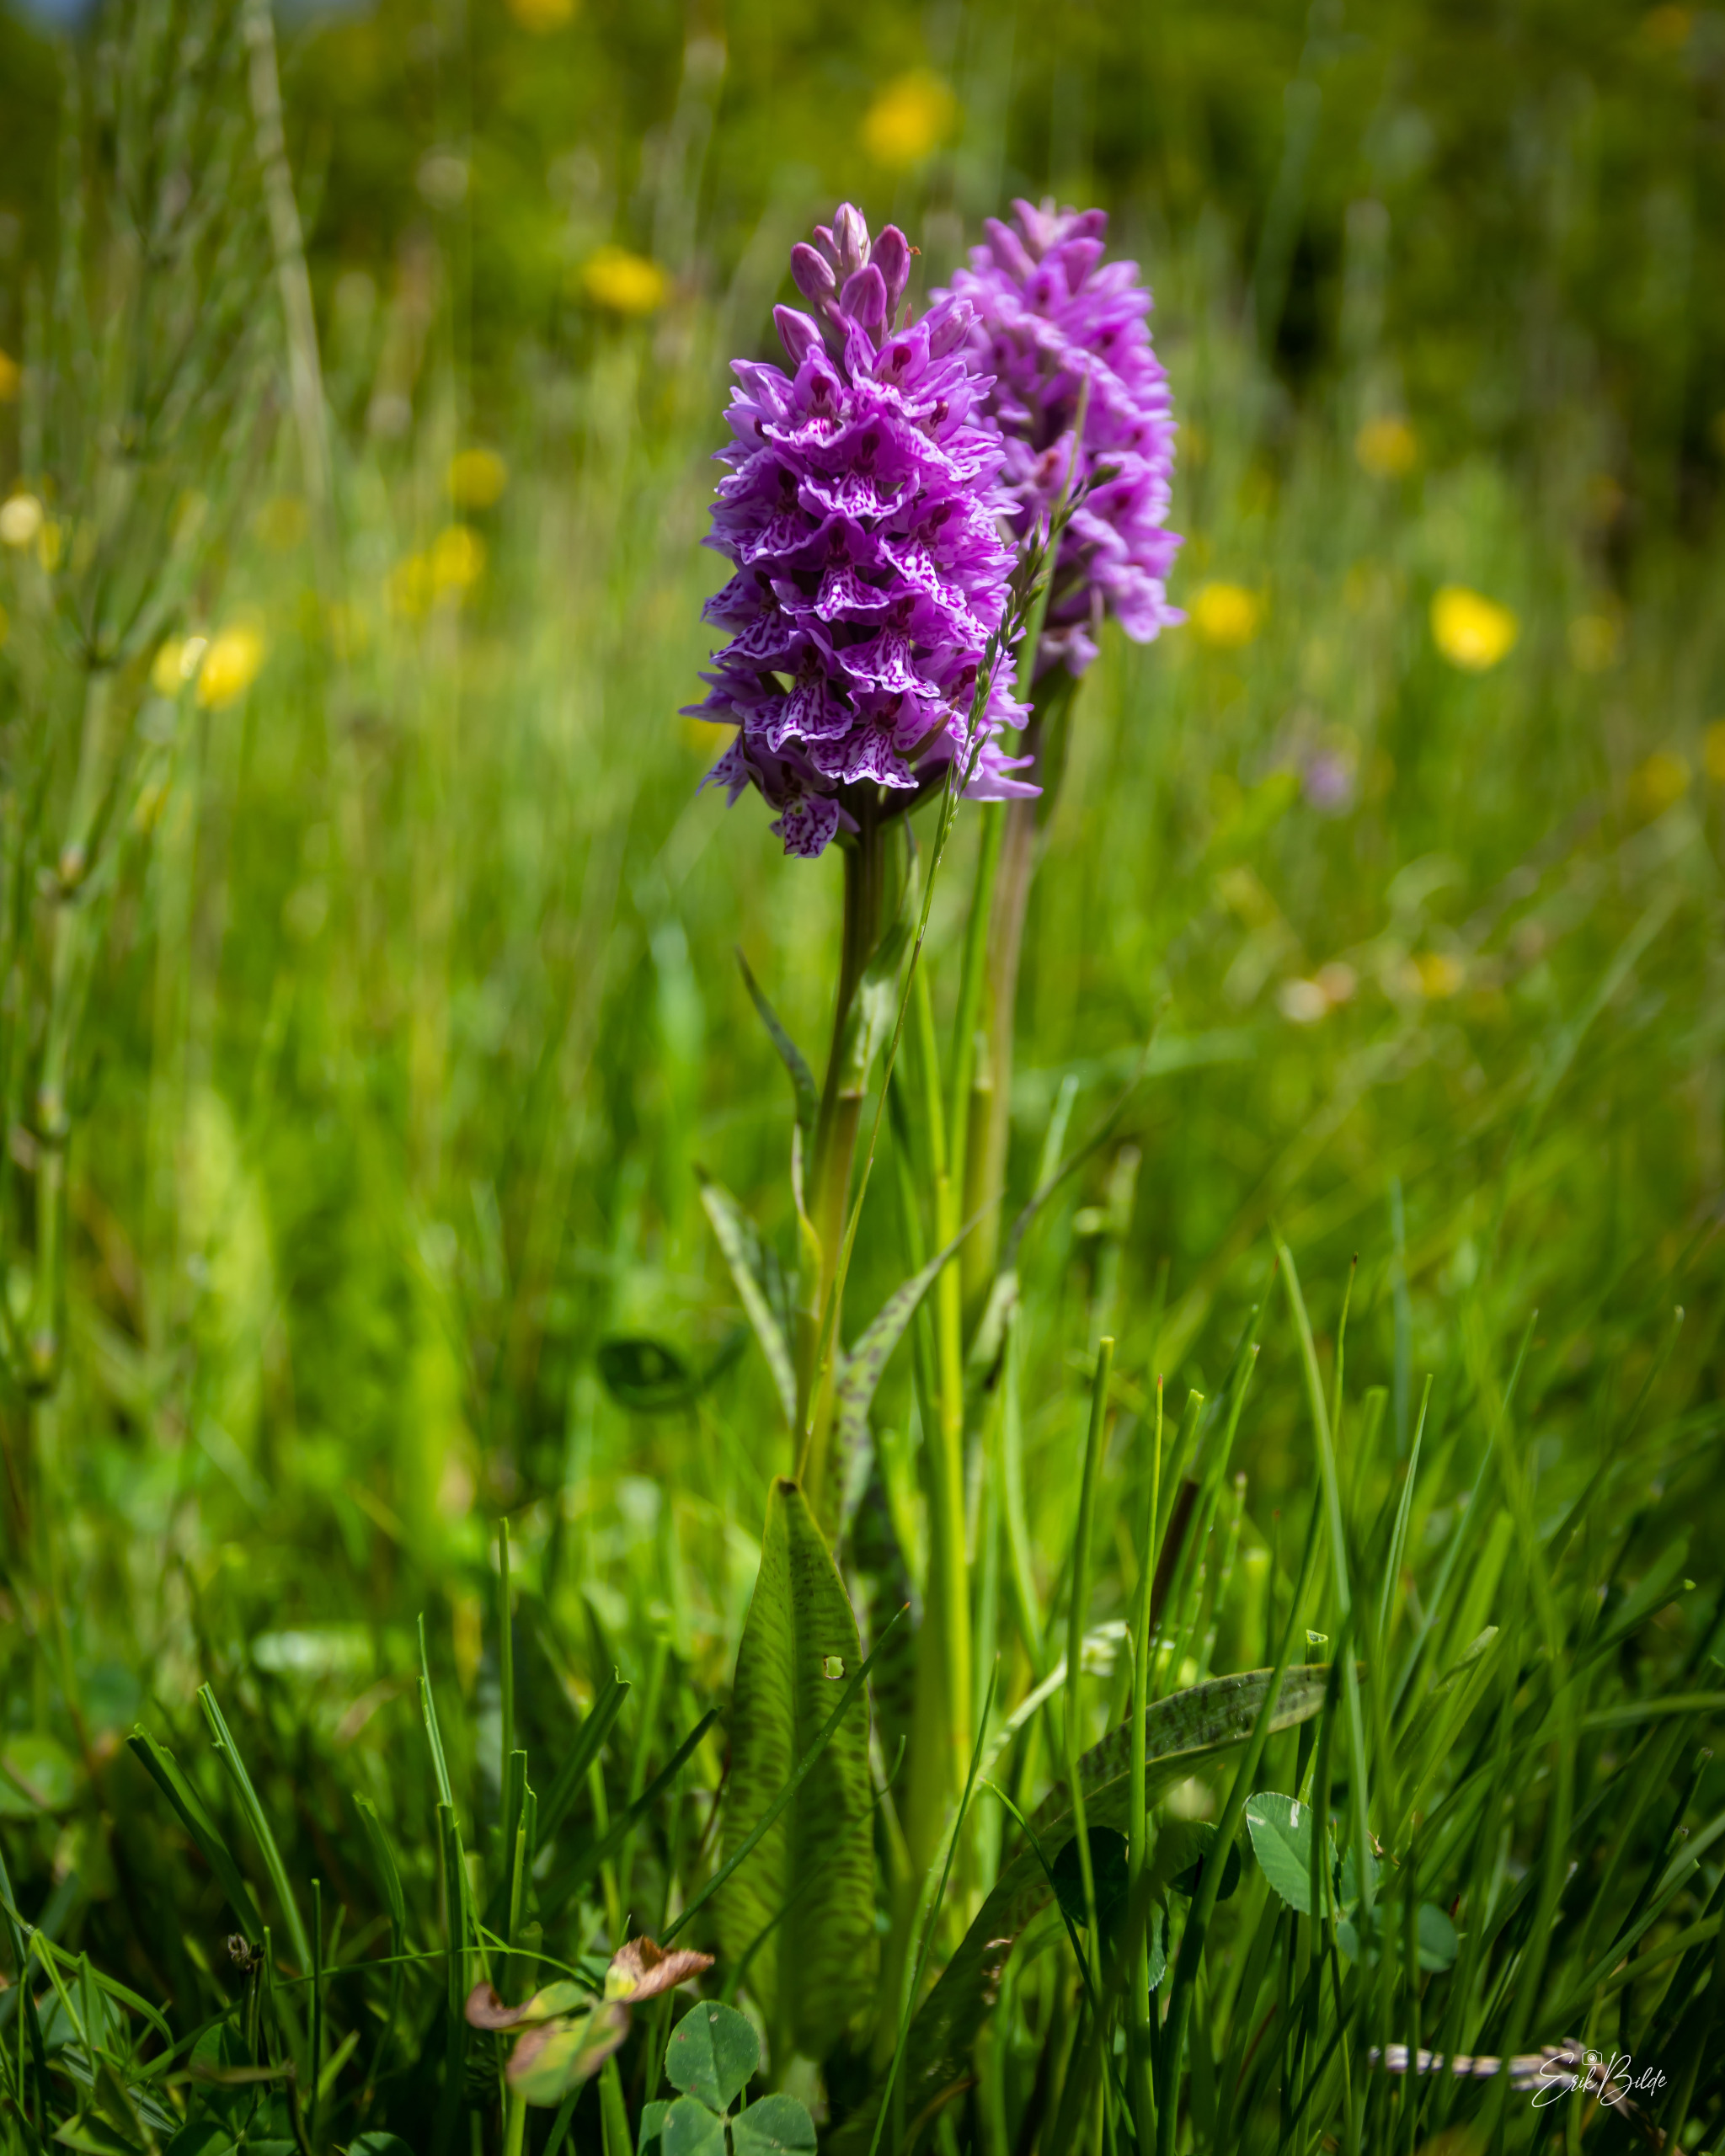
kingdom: Plantae
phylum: Tracheophyta
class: Liliopsida
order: Asparagales
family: Orchidaceae
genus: Dactylorhiza
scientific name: Dactylorhiza maculata
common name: Plettet gøgeurt
